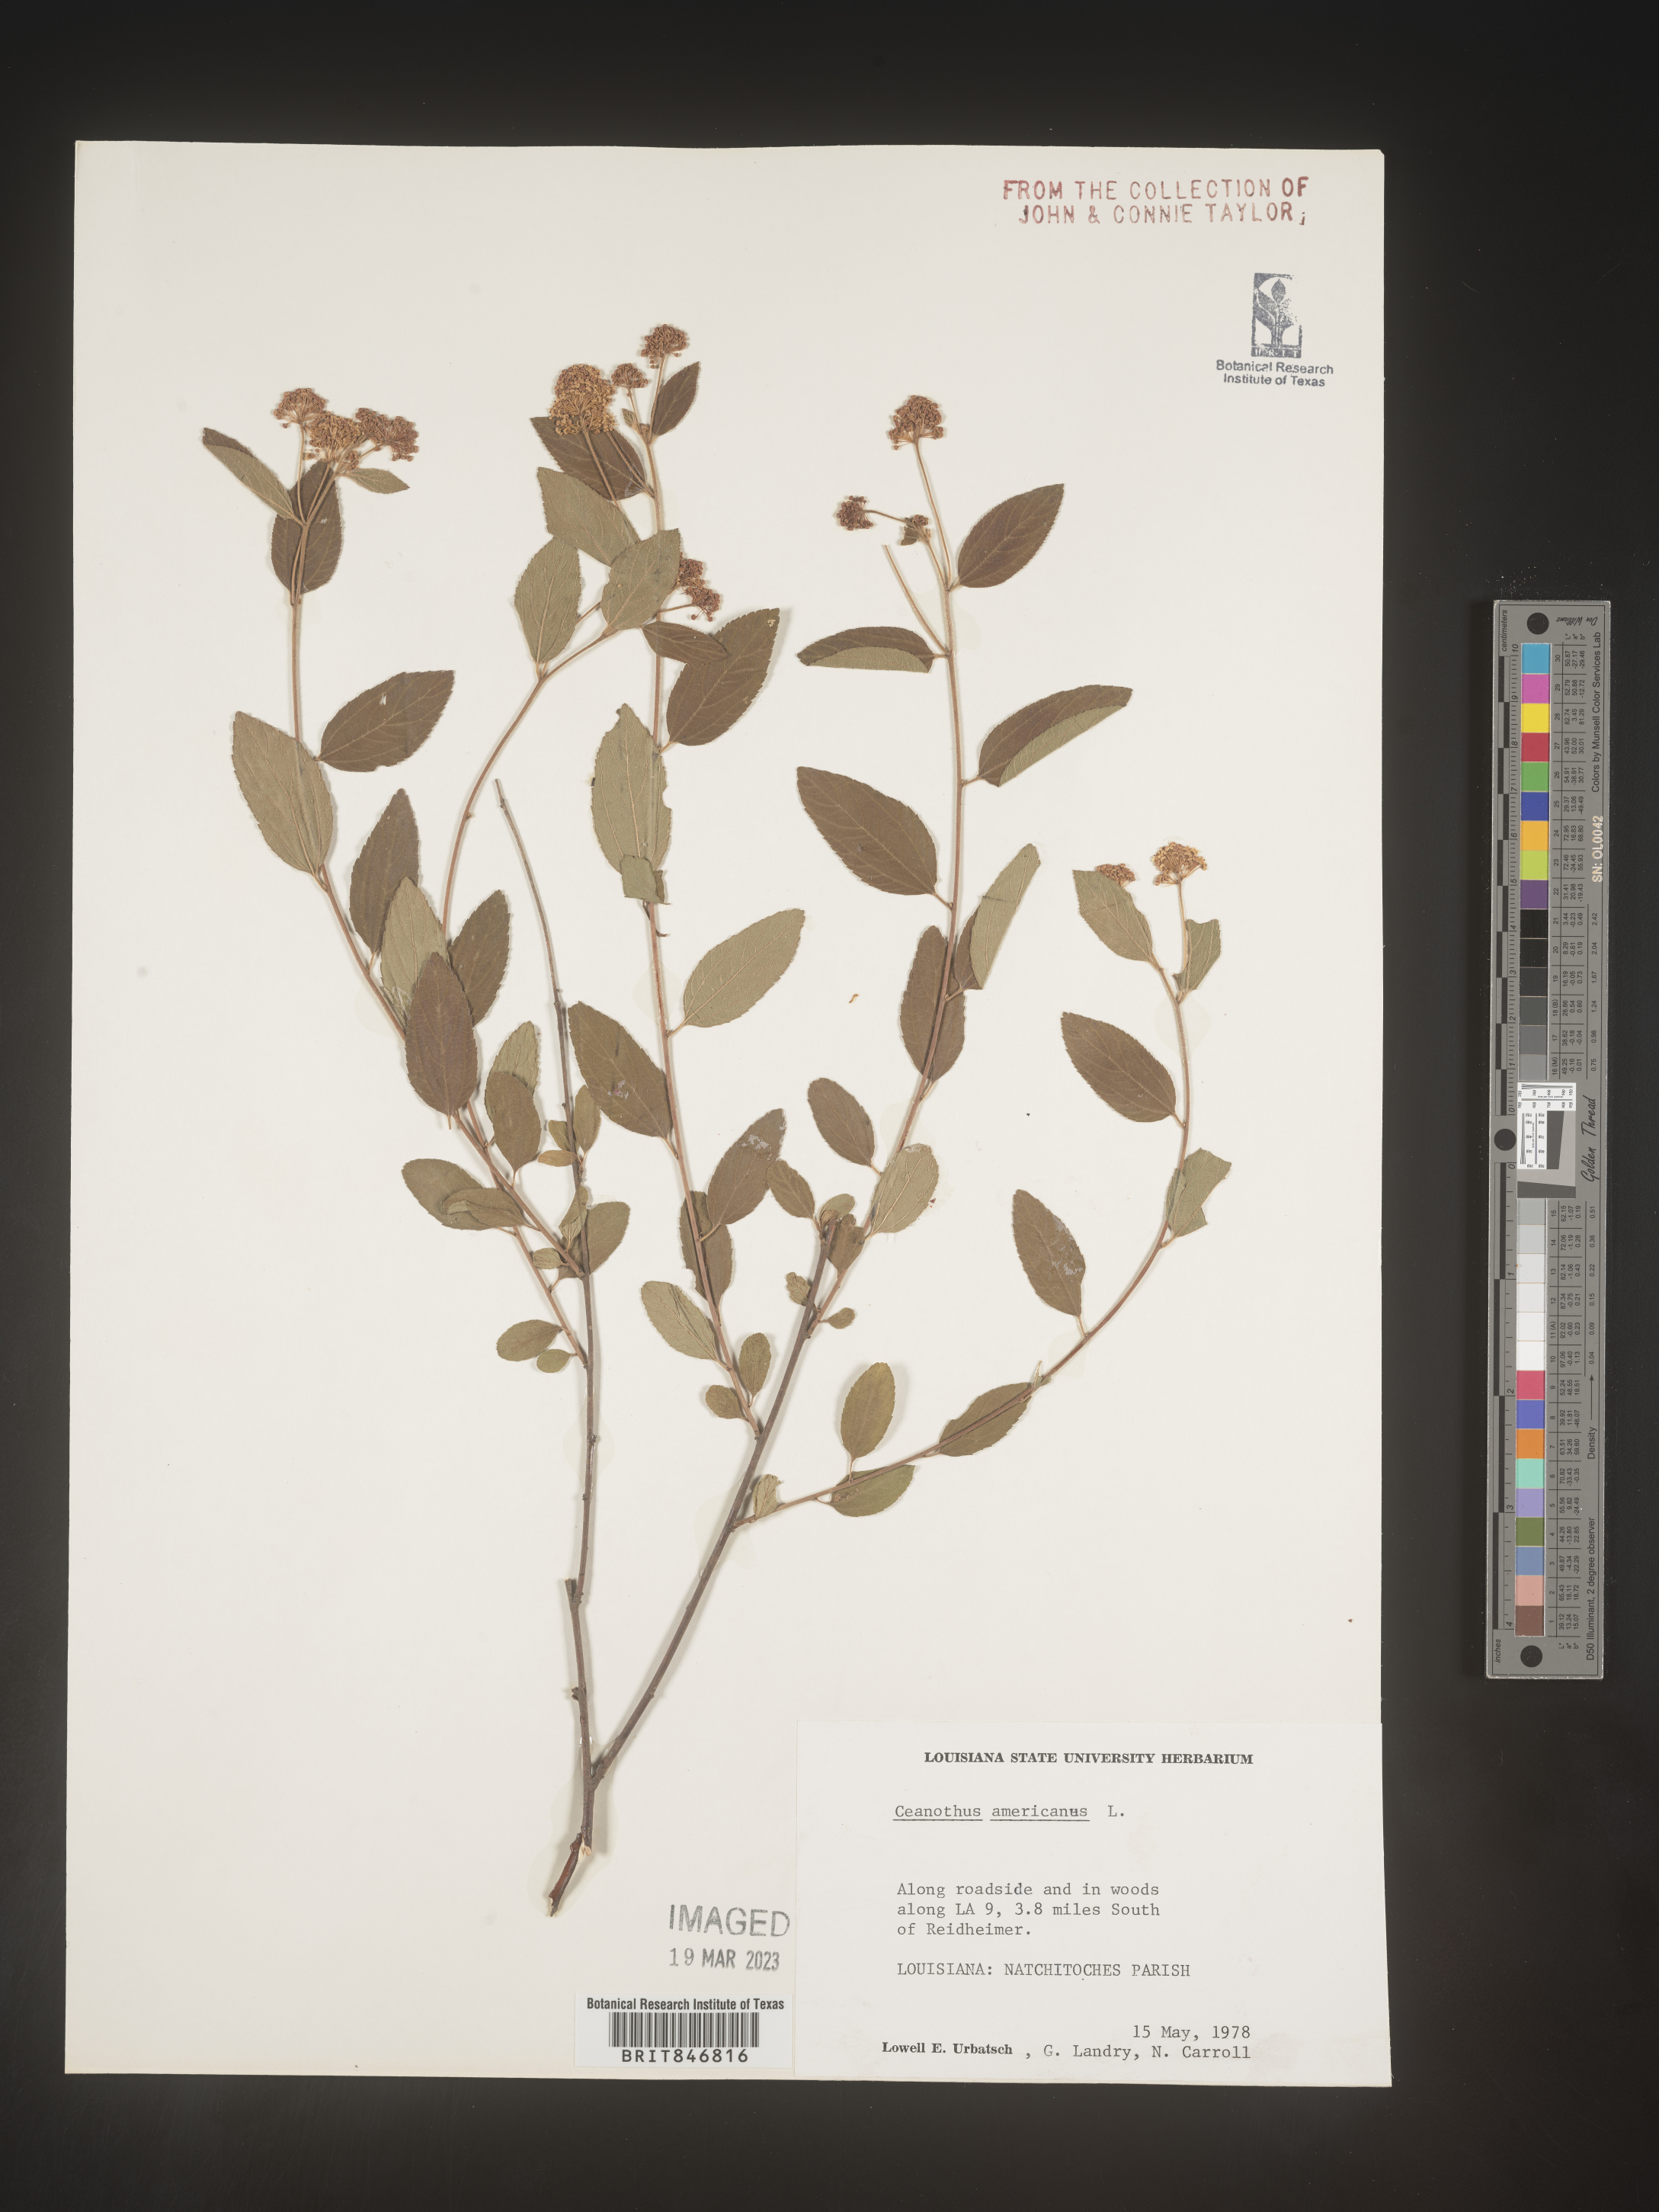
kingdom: Plantae
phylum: Tracheophyta
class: Magnoliopsida
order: Rosales
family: Rhamnaceae
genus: Ceanothus
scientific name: Ceanothus americanus
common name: Redroot
